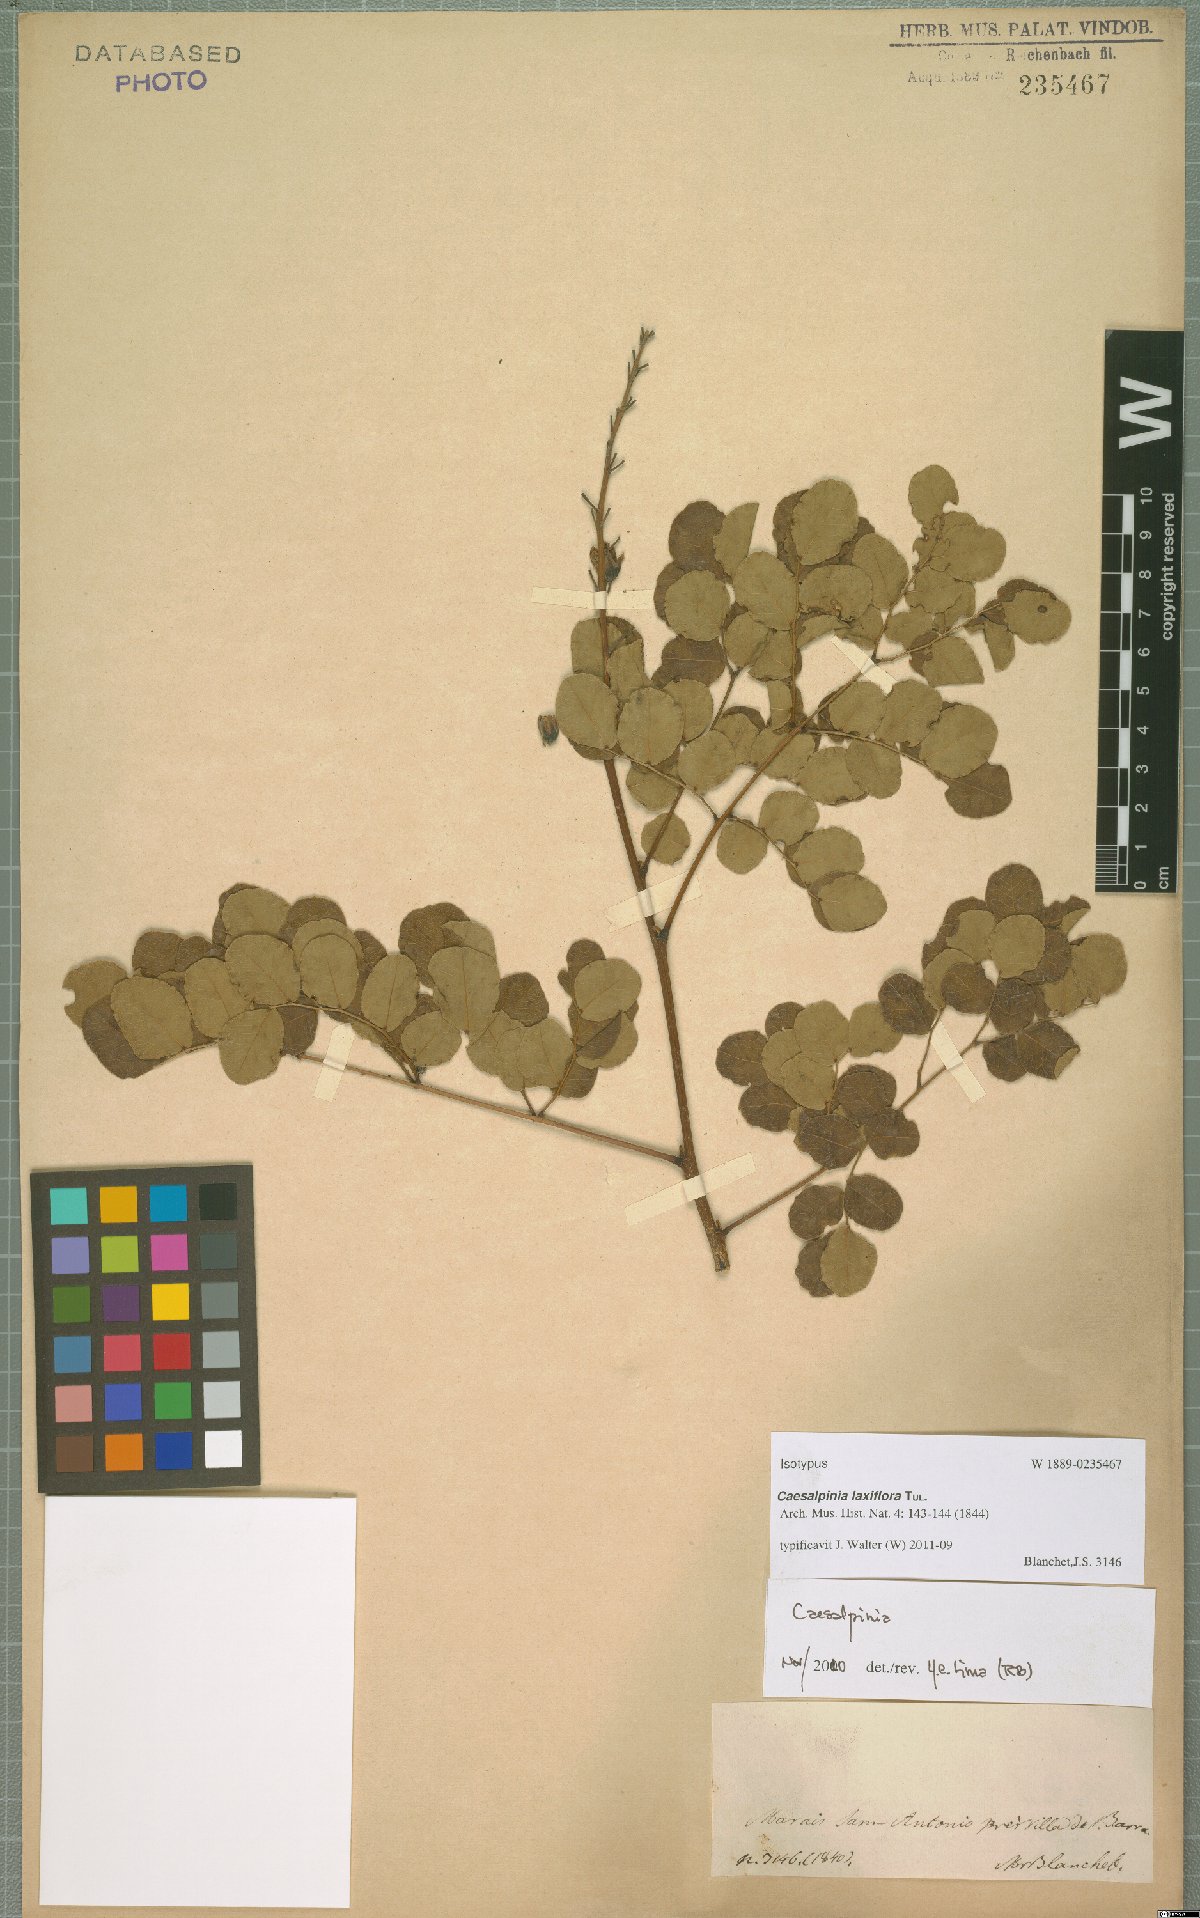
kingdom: Plantae
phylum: Tracheophyta
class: Magnoliopsida
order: Fabales
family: Fabaceae
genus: Cenostigma
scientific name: Cenostigma laxiflorum
